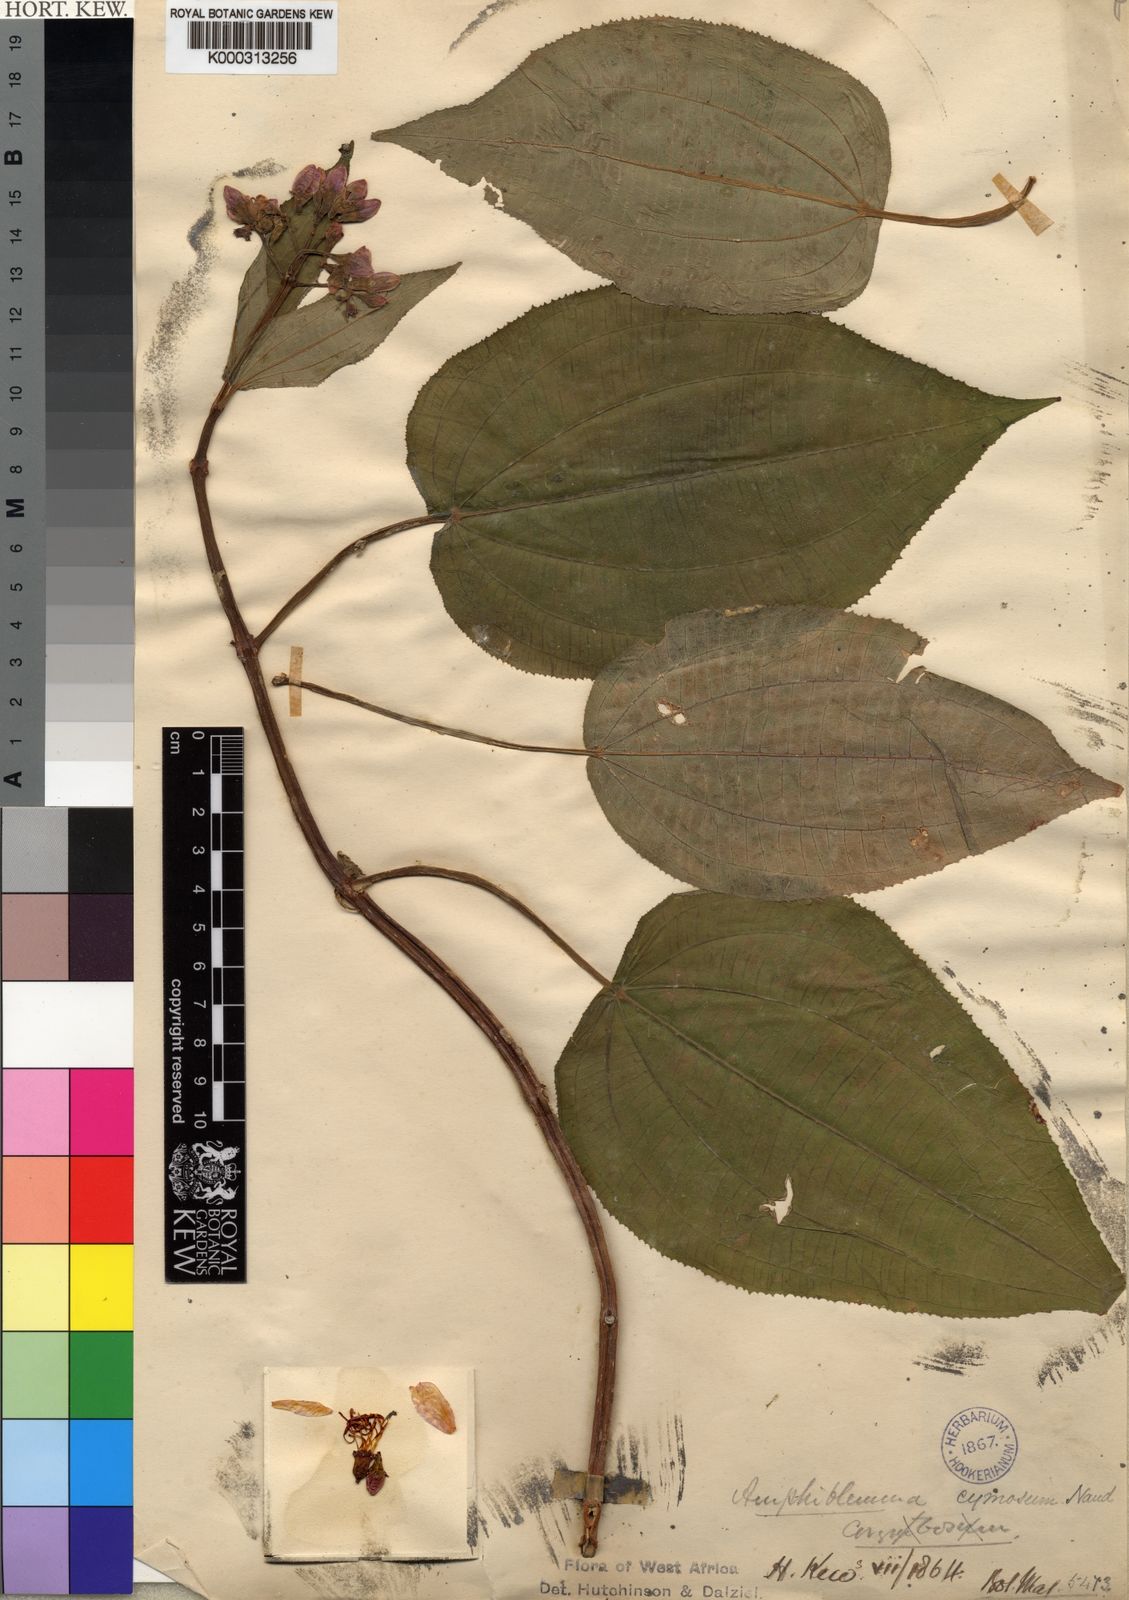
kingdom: Plantae
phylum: Tracheophyta
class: Magnoliopsida
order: Myrtales
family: Melastomataceae
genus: Amphiblemma
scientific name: Amphiblemma cymosum
